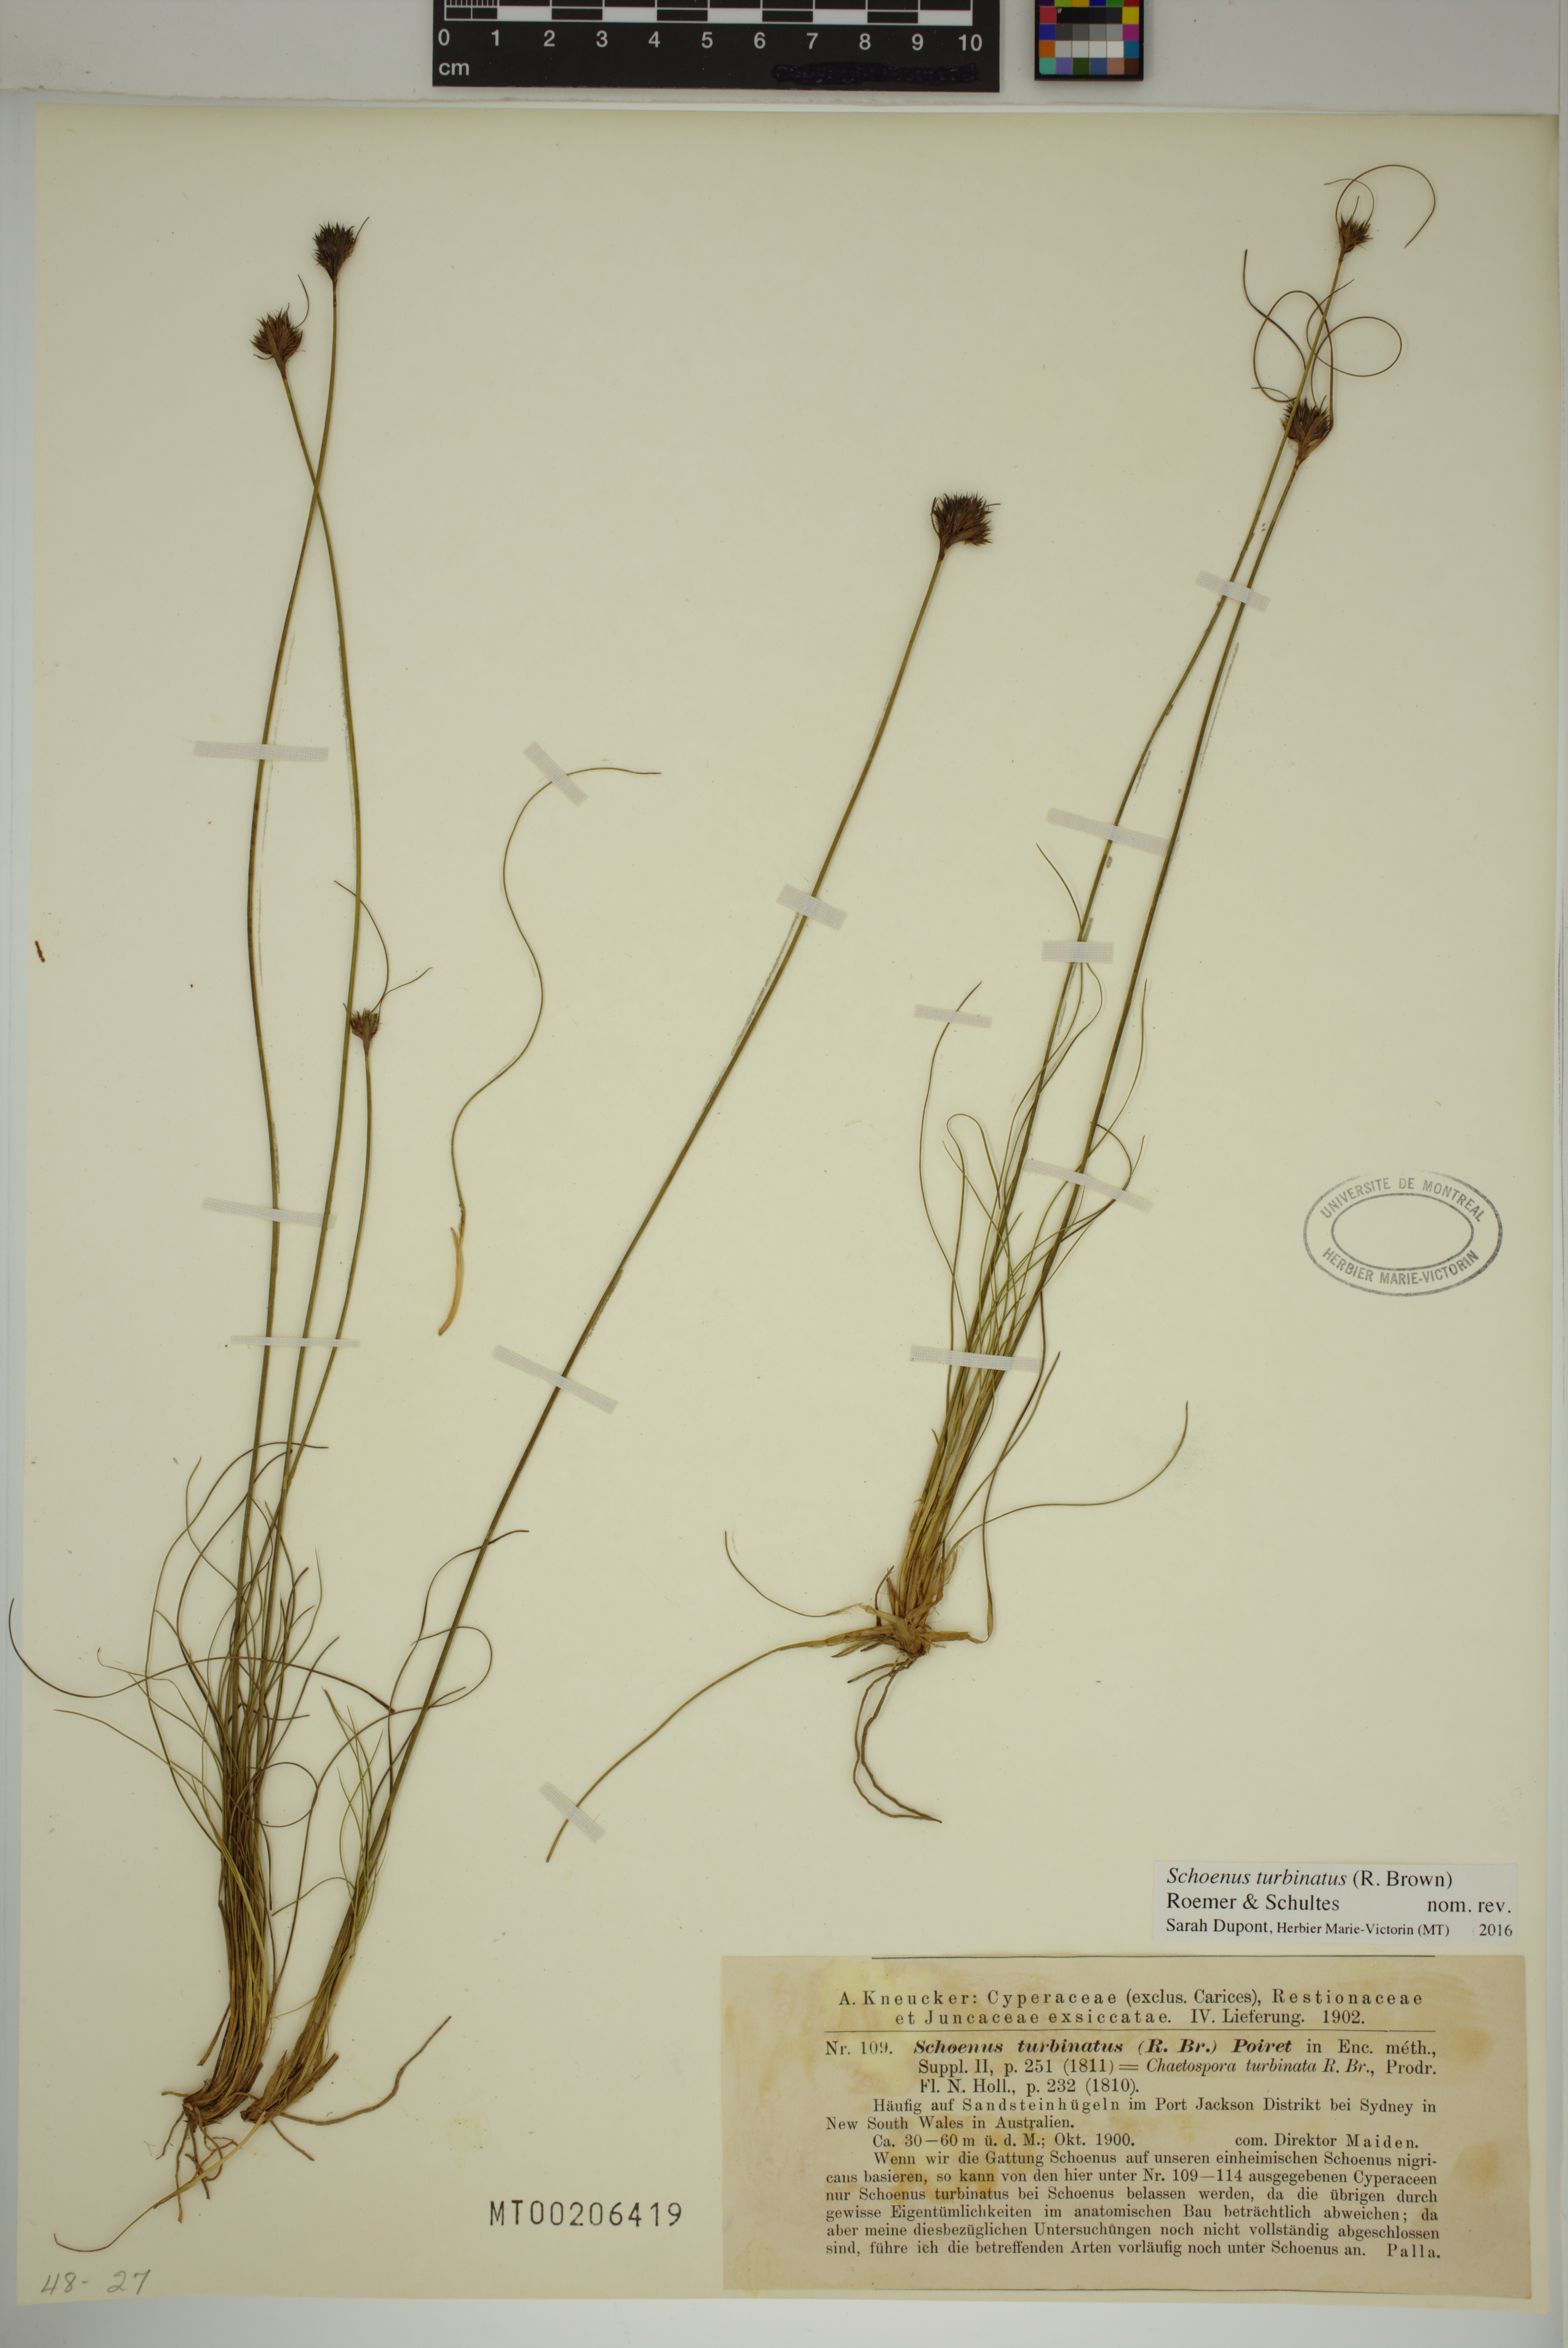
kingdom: Plantae
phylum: Tracheophyta
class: Liliopsida
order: Poales
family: Cyperaceae
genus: Schoenus
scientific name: Schoenus turbinatus
